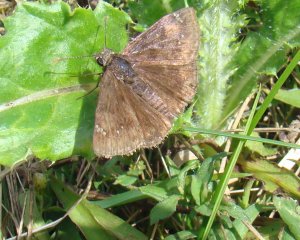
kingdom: Animalia
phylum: Arthropoda
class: Insecta
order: Lepidoptera
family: Hesperiidae
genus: Gesta
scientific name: Gesta
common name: Wild Indigo Duskywing
